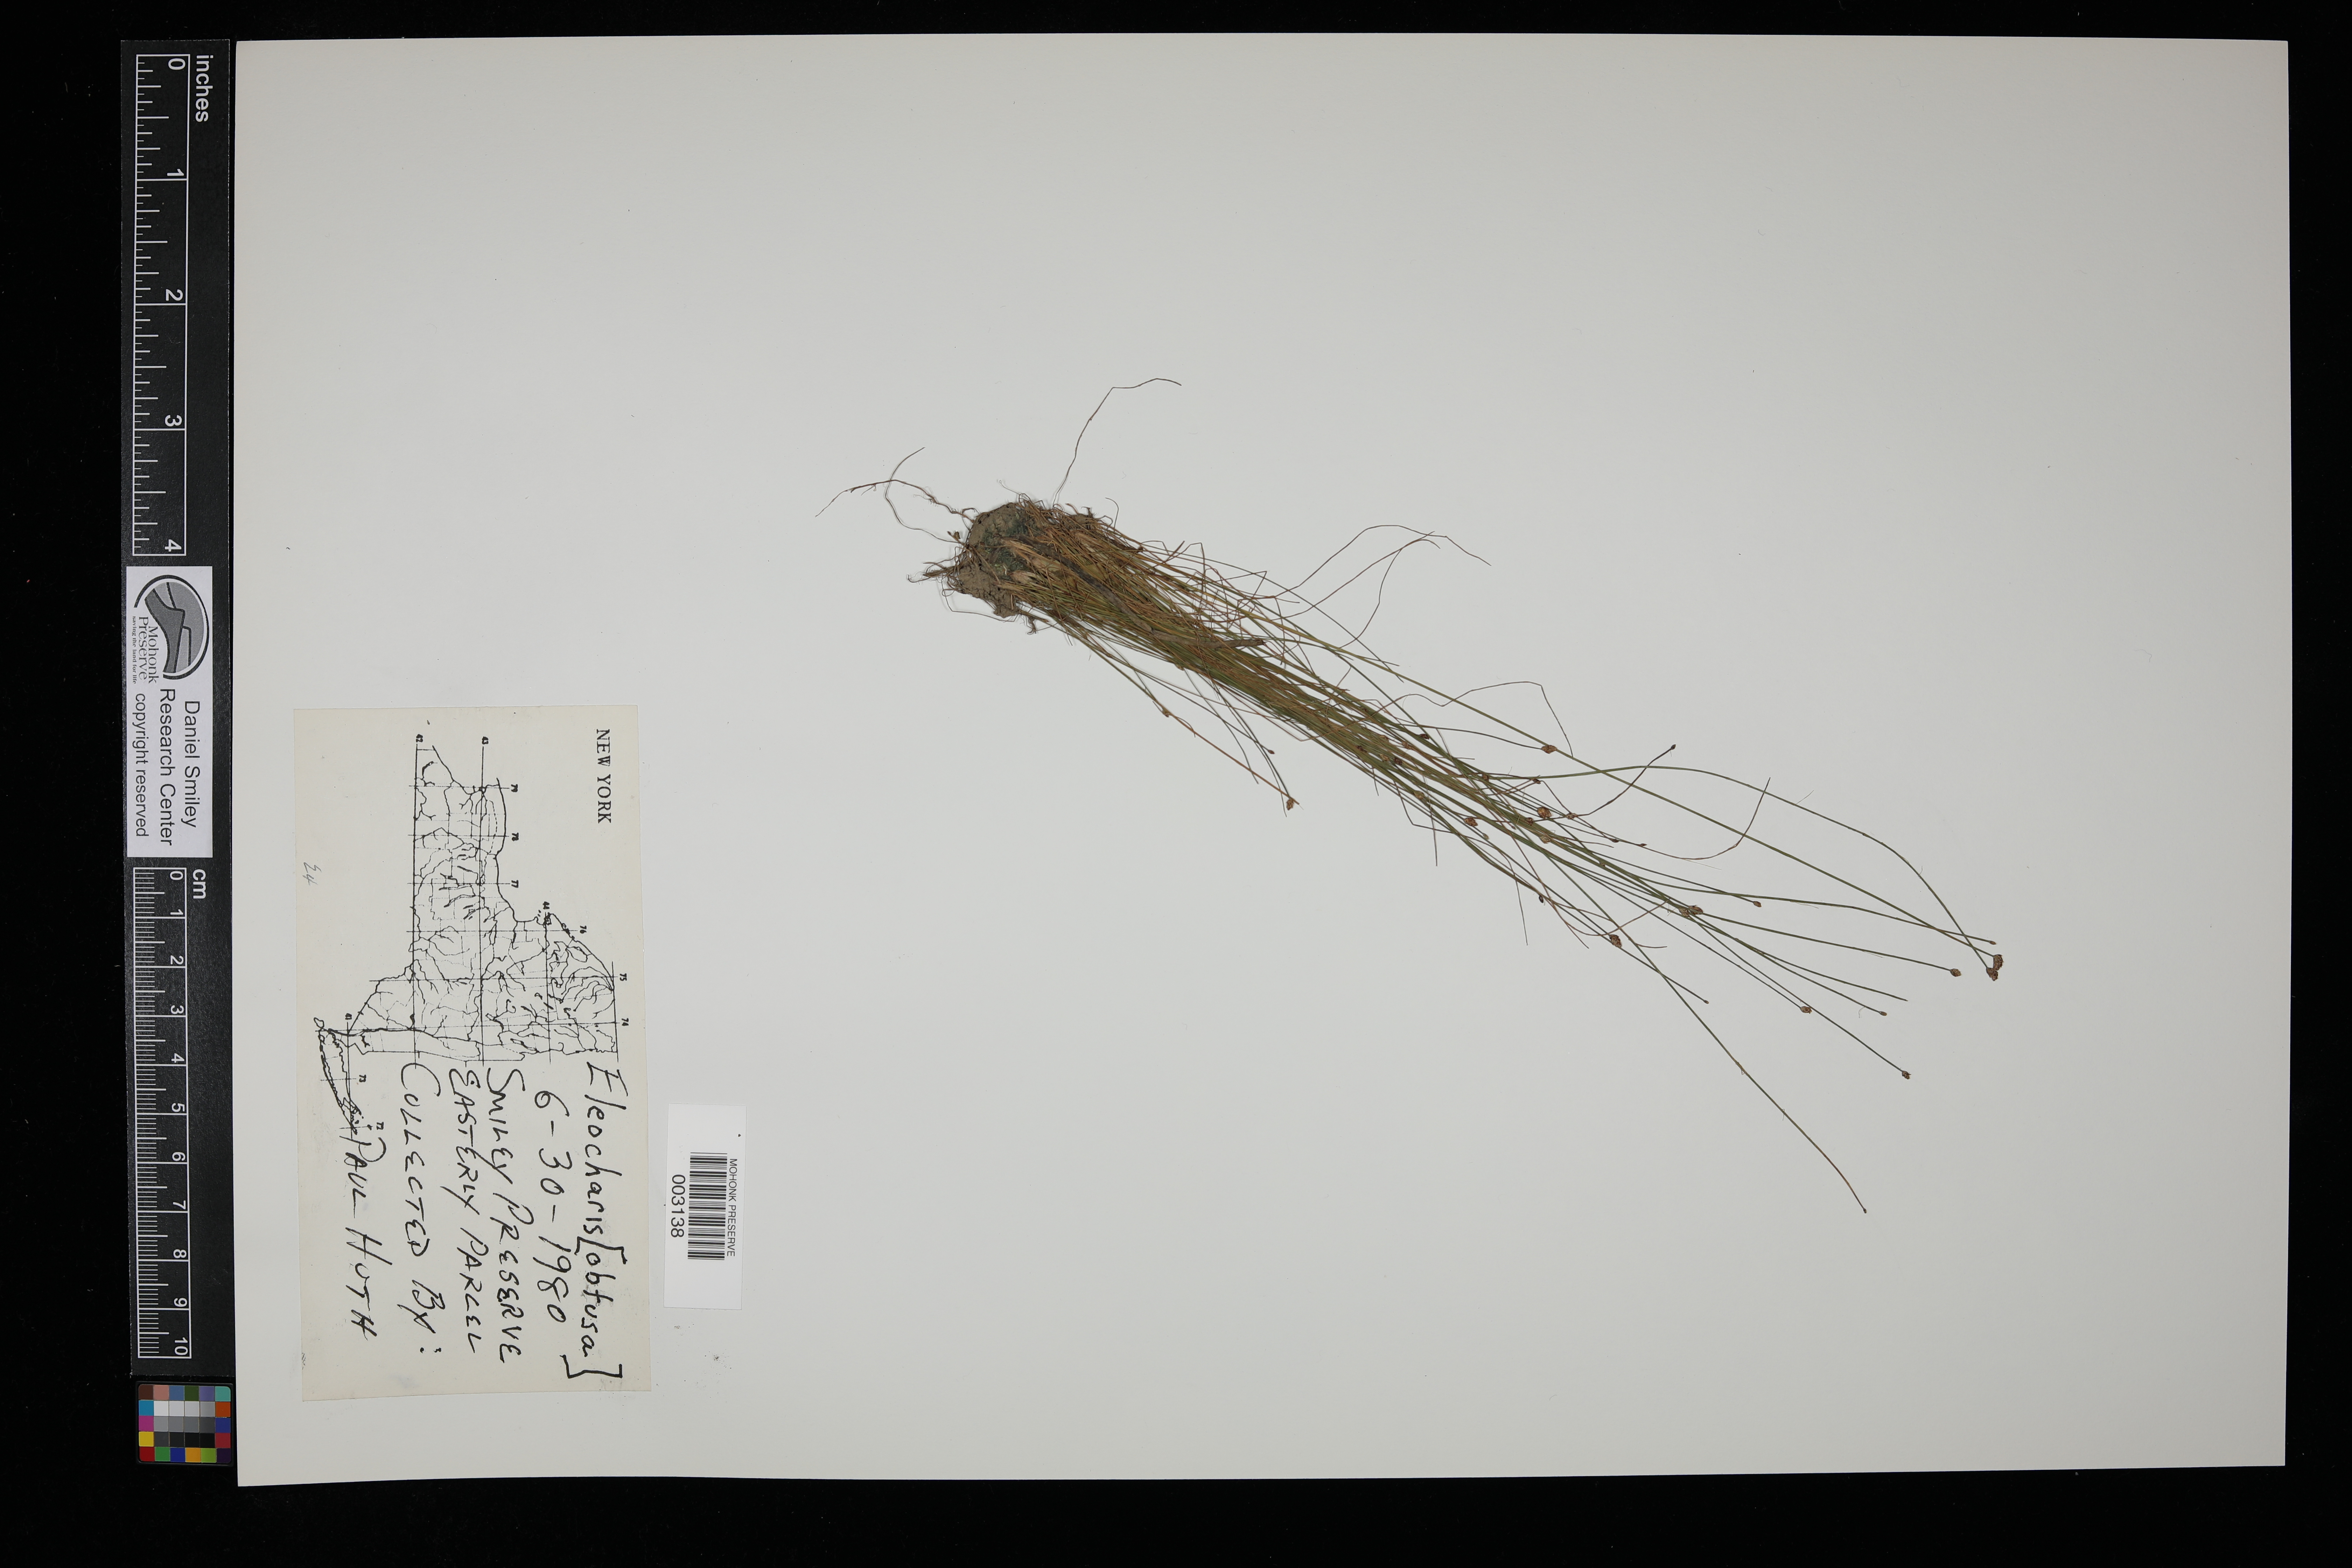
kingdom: Plantae
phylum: Tracheophyta
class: Liliopsida
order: Poales
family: Cyperaceae
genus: Eleocharis
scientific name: Eleocharis obtusa
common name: Blunt spikerush
